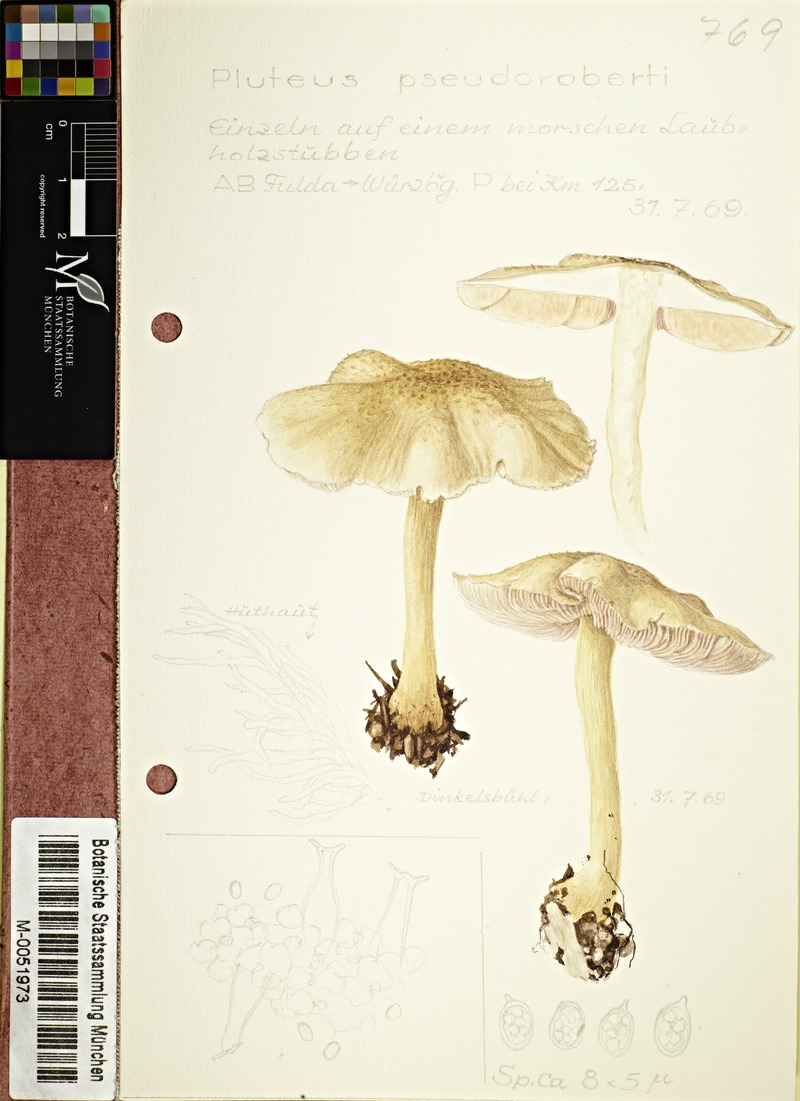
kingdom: Fungi
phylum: Basidiomycota
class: Agaricomycetes
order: Agaricales
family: Pluteaceae
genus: Pluteus
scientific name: Pluteus pseudorobertii
